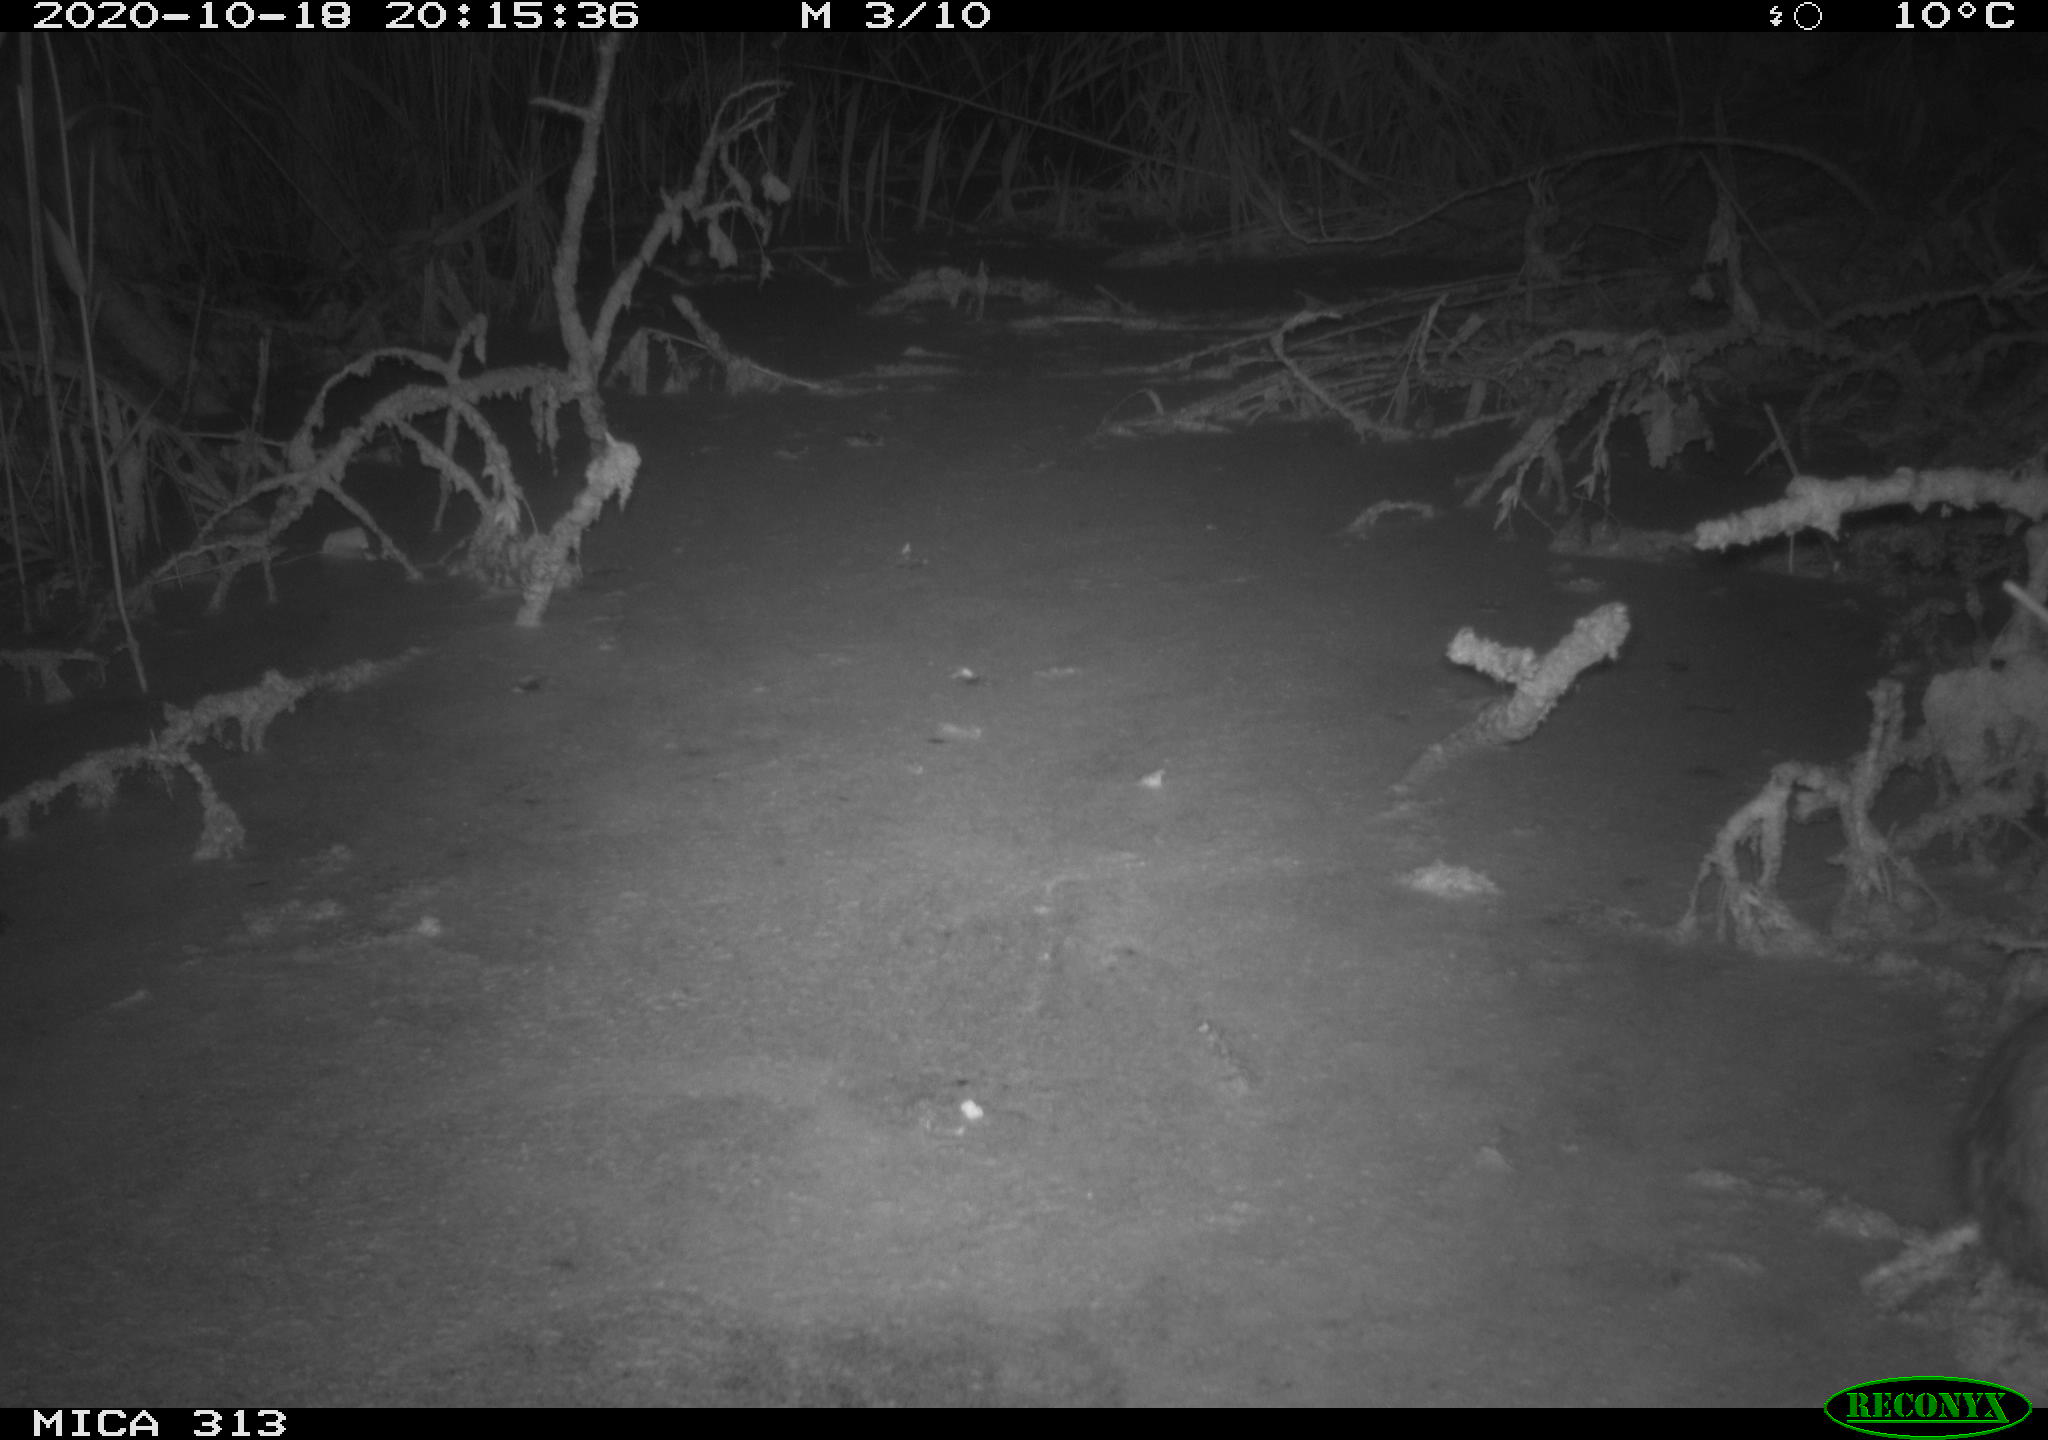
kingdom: Animalia
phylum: Chordata
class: Mammalia
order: Rodentia
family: Cricetidae
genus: Ondatra
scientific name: Ondatra zibethicus
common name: Muskrat
